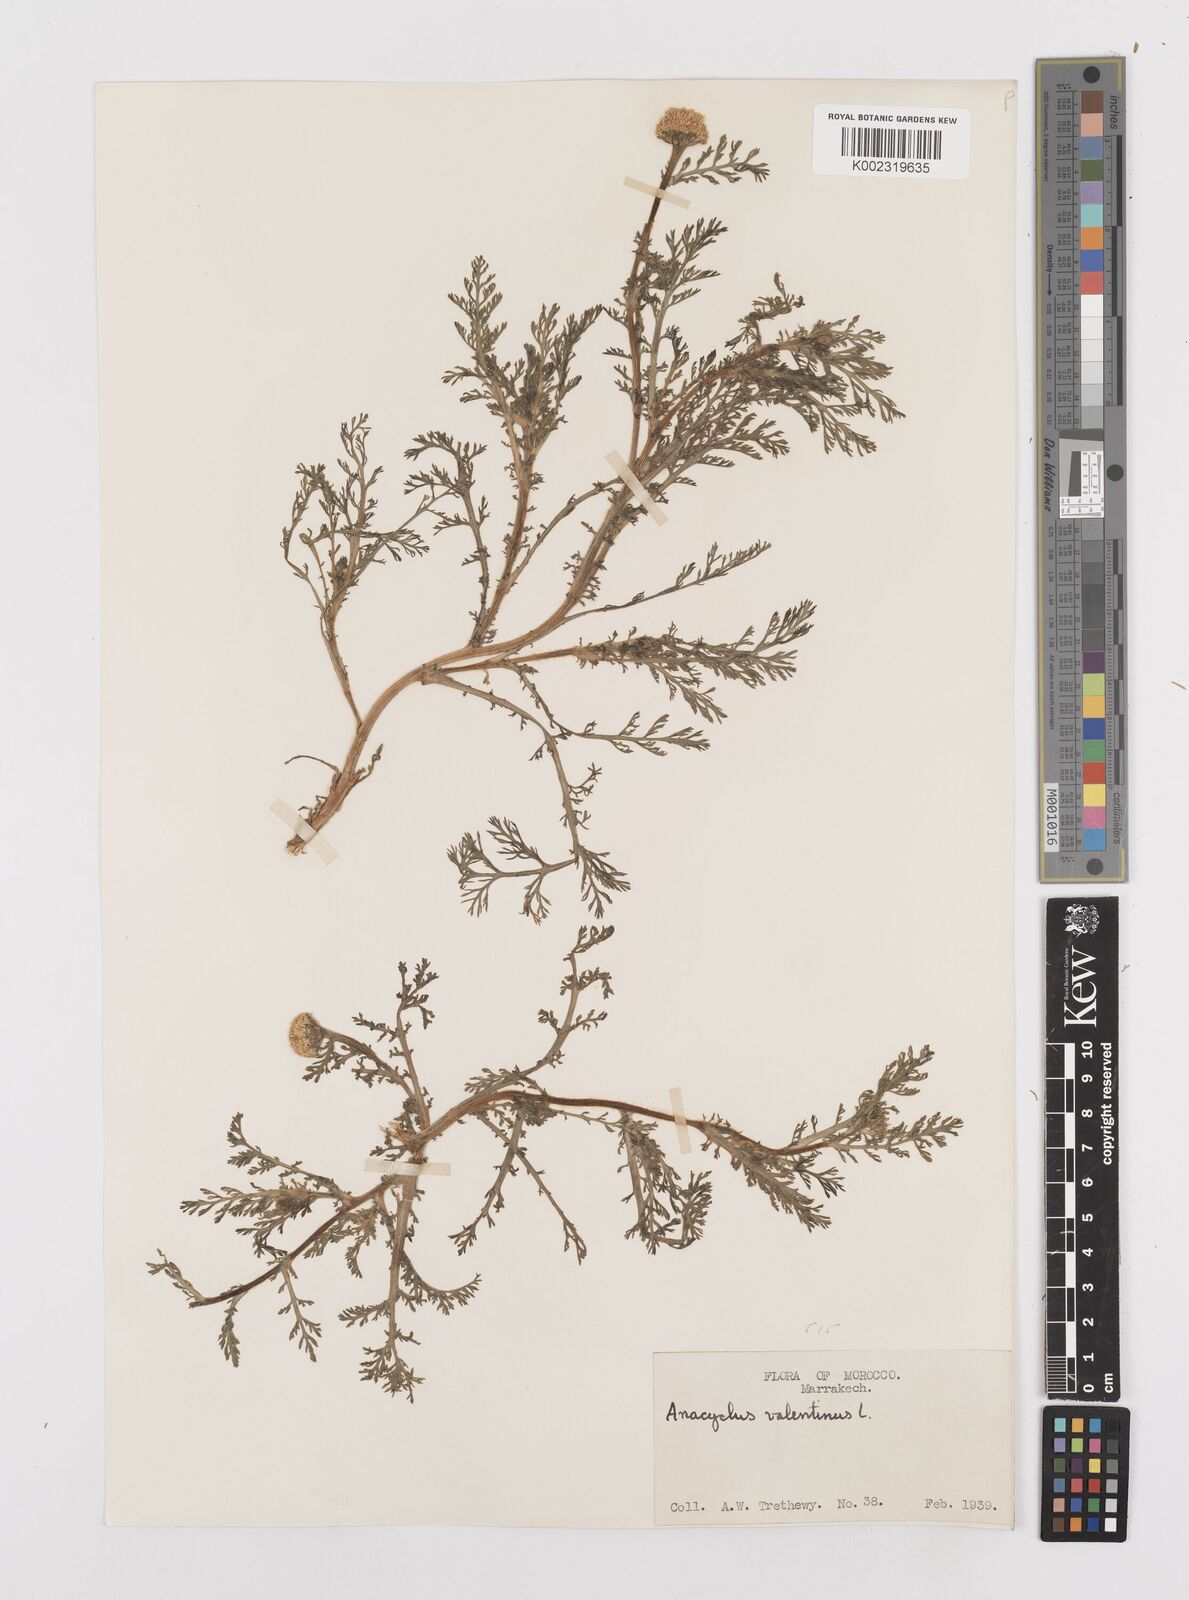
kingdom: Plantae
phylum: Tracheophyta
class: Magnoliopsida
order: Asterales
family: Asteraceae
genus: Anacyclus
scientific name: Anacyclus valentinus
